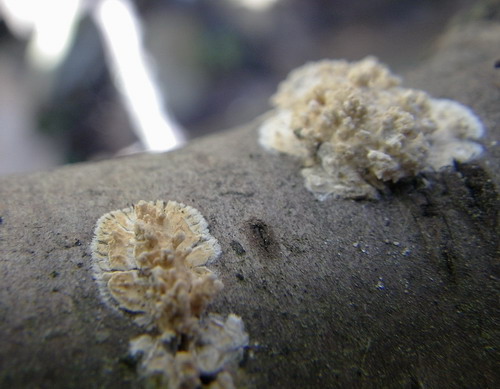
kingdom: Fungi
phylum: Basidiomycota
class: Agaricomycetes
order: Hymenochaetales
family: Schizoporaceae
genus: Xylodon
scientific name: Xylodon radula
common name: grovtandet kalkskind
